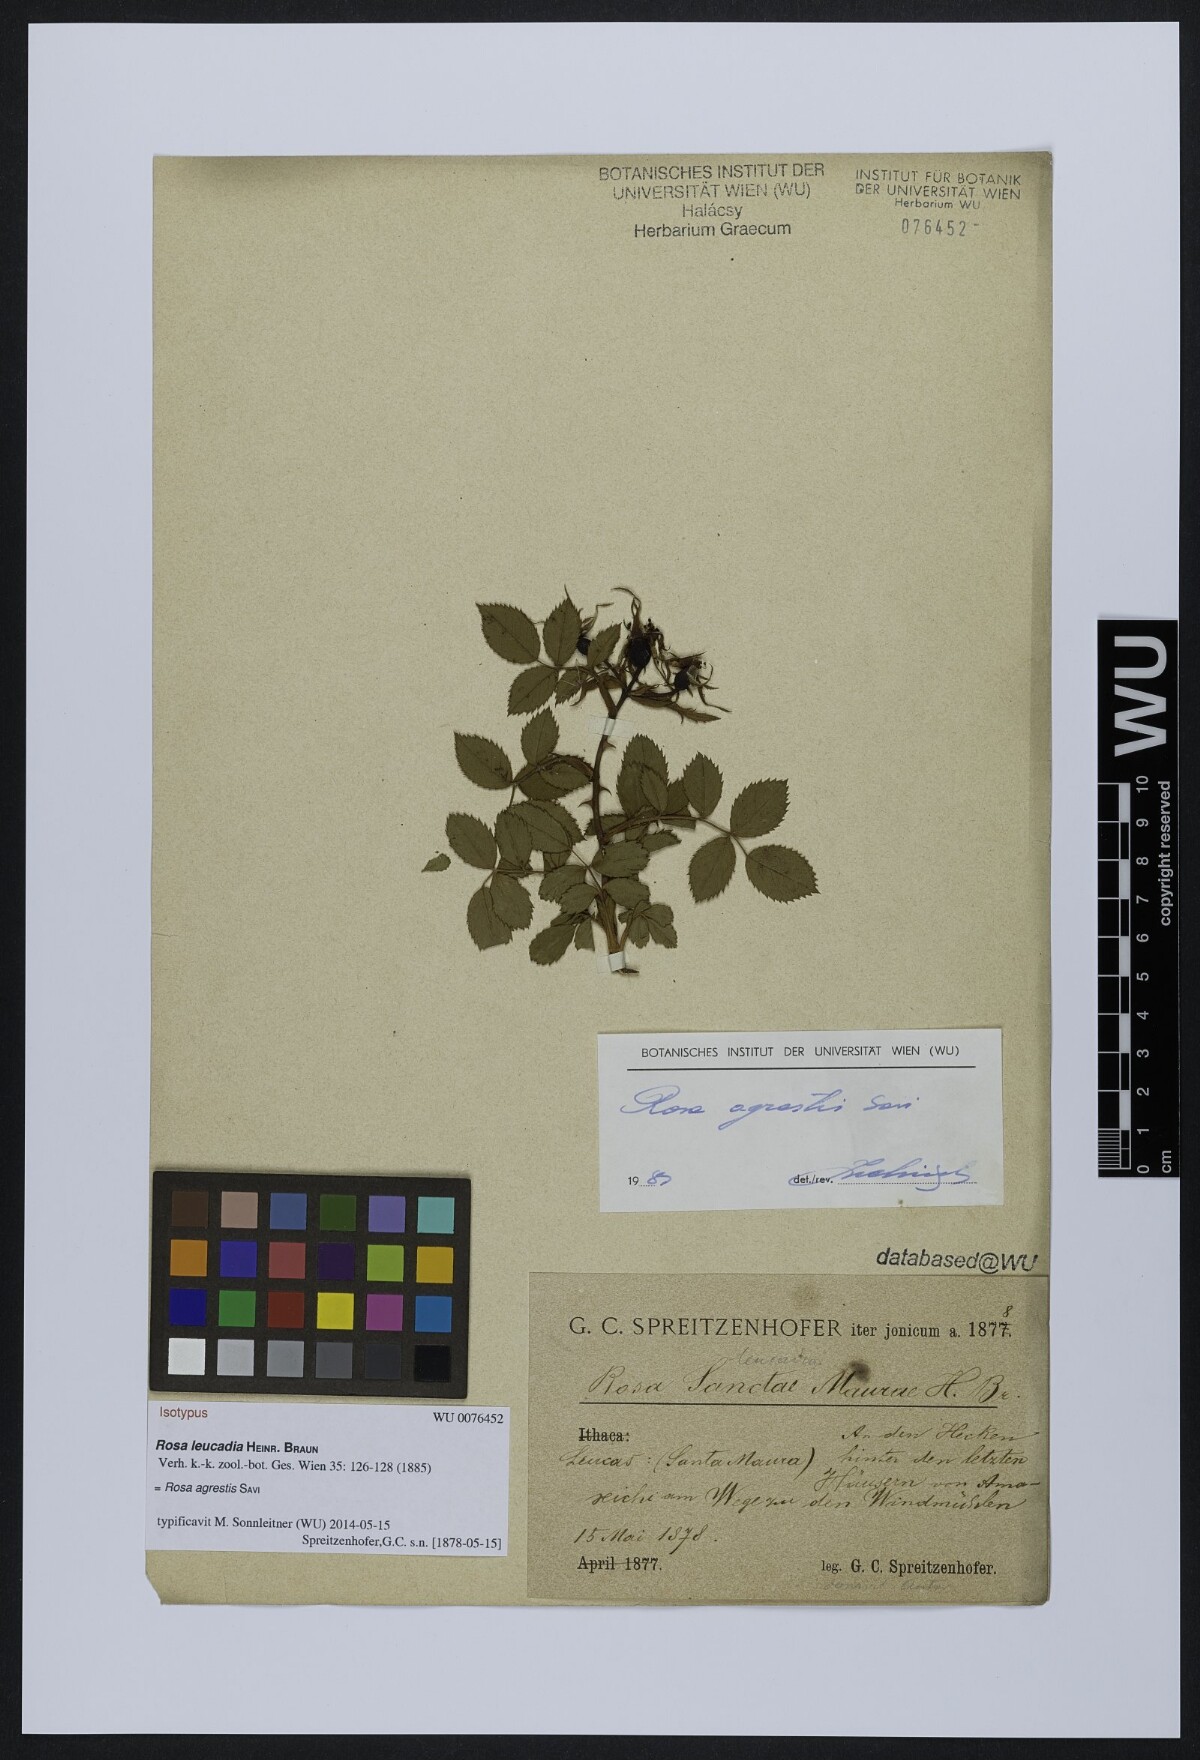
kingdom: Plantae
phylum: Tracheophyta
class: Magnoliopsida
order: Rosales
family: Rosaceae
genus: Rosa
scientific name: Rosa micrantha
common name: Small-flowered sweet-briar
